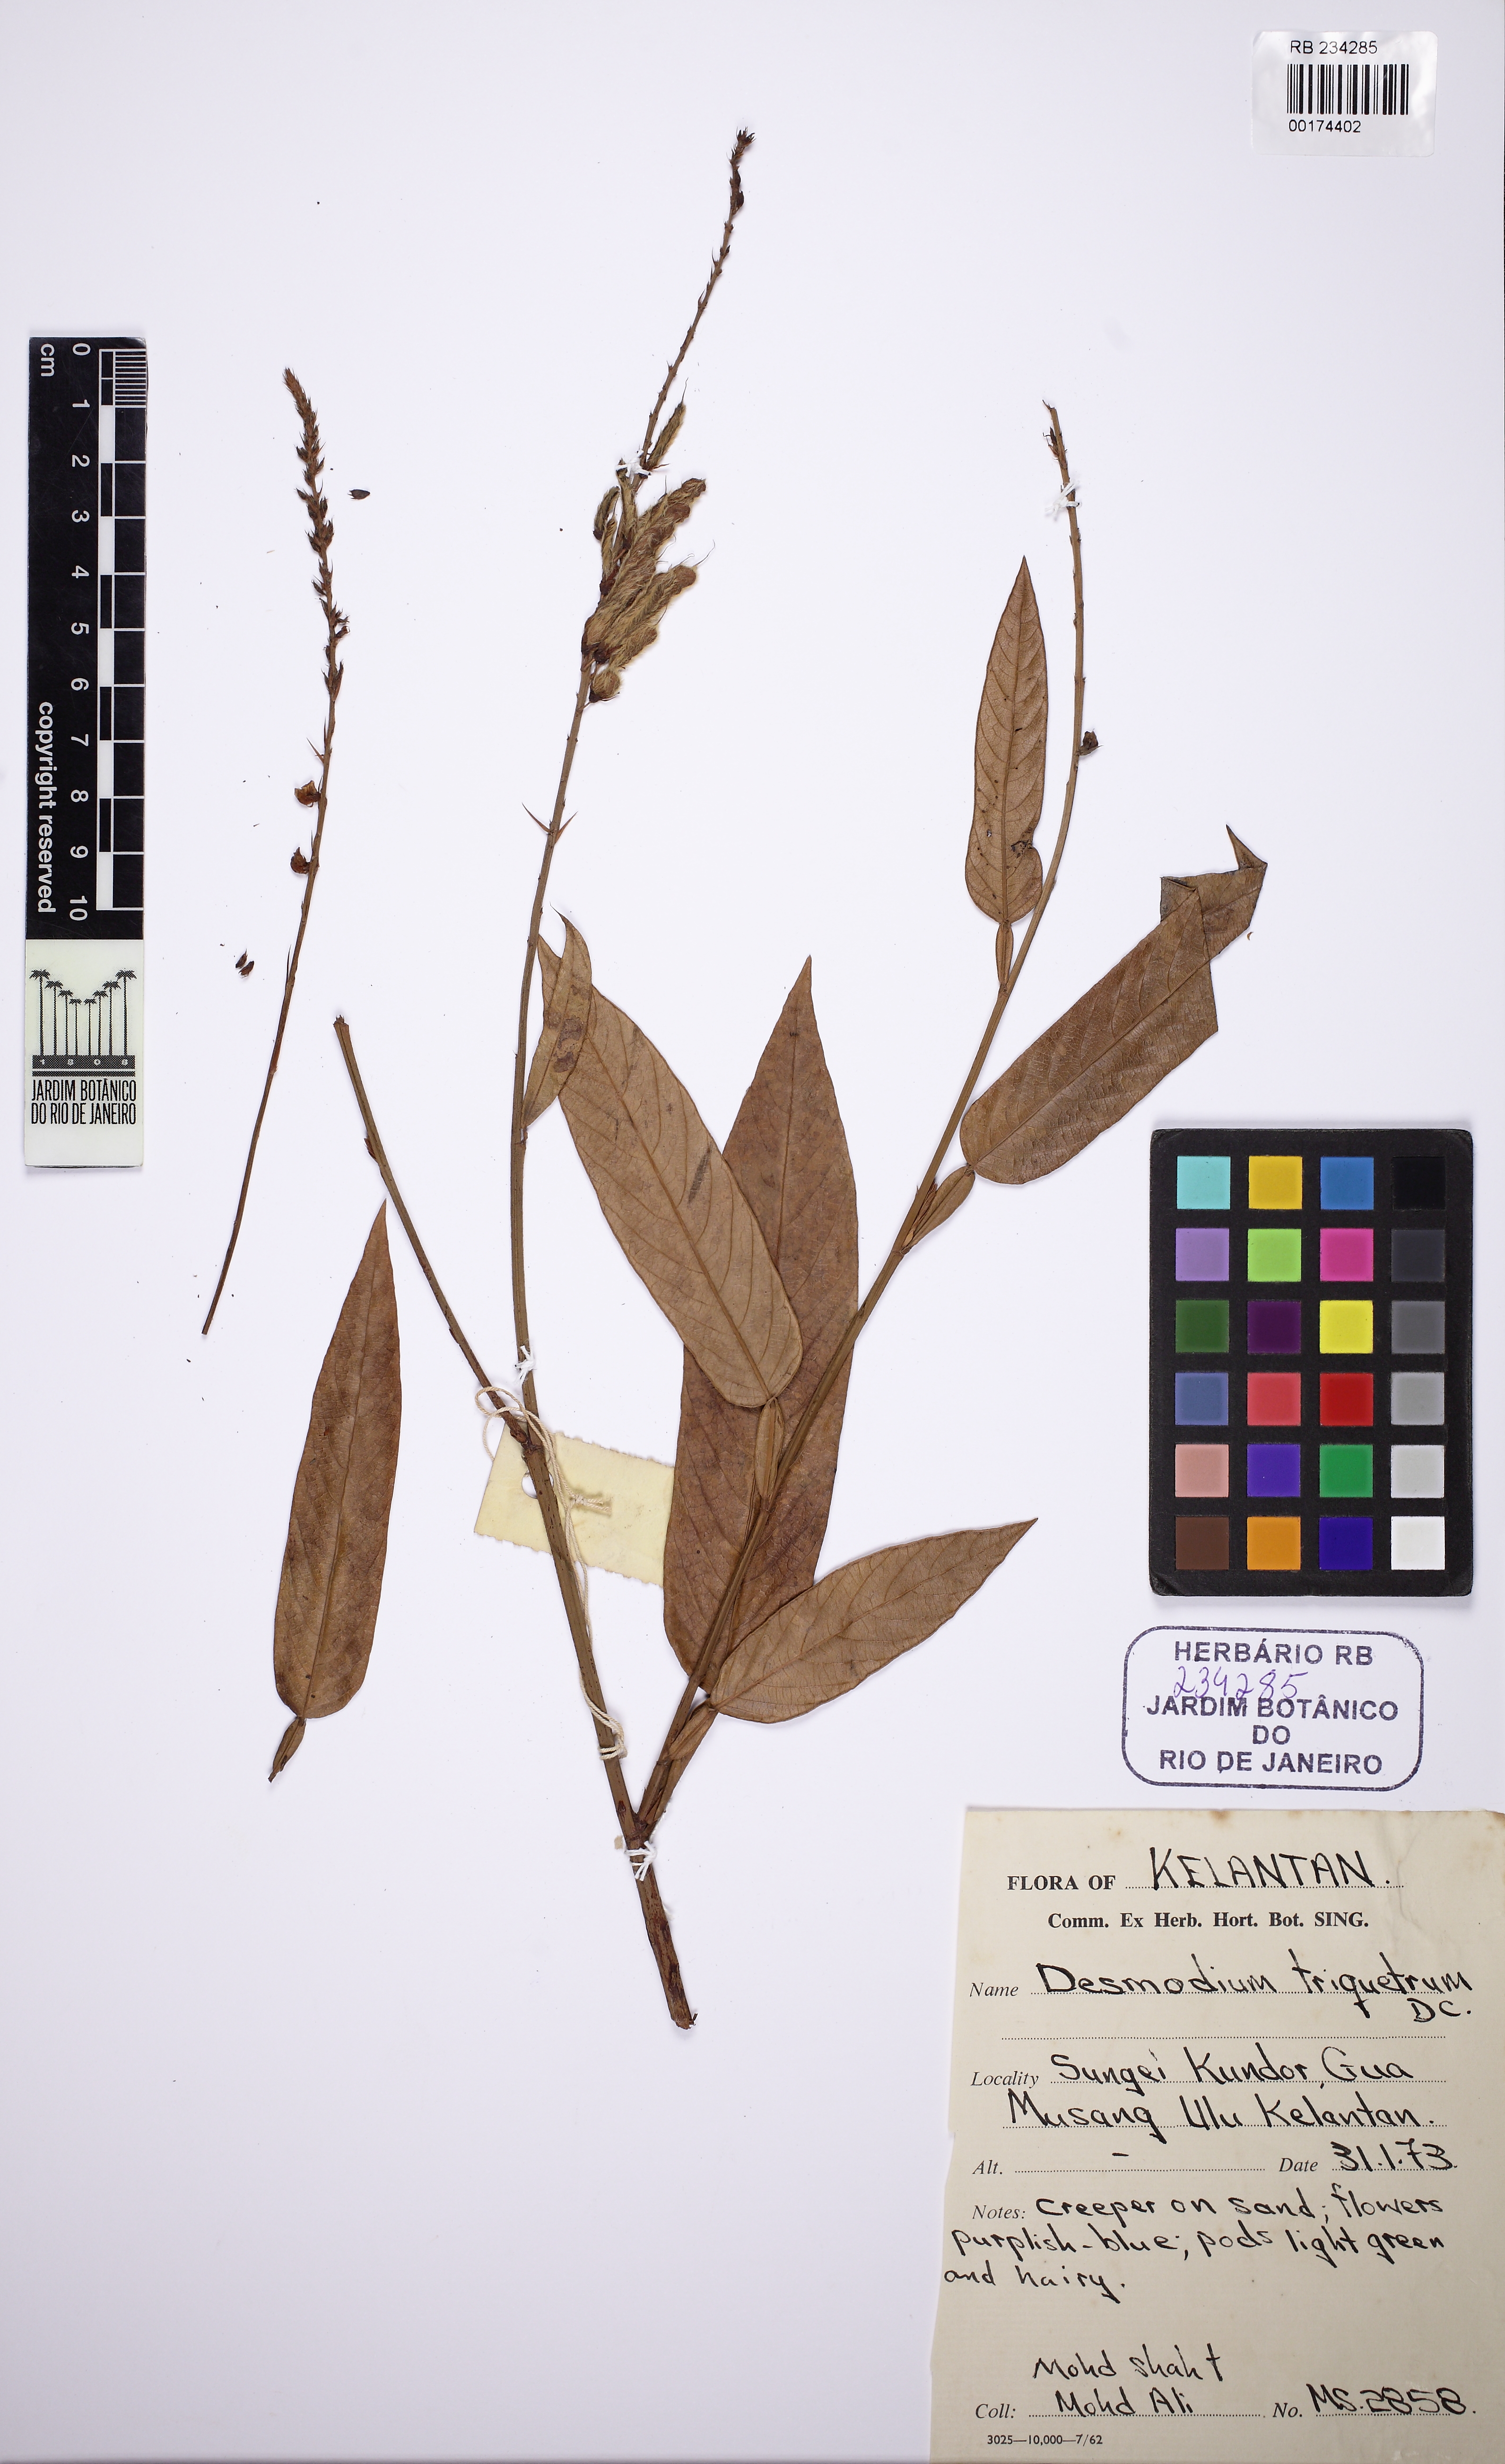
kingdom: Plantae
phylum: Tracheophyta
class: Magnoliopsida
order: Fabales
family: Fabaceae
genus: Tadehagi
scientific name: Tadehagi triquetrum
